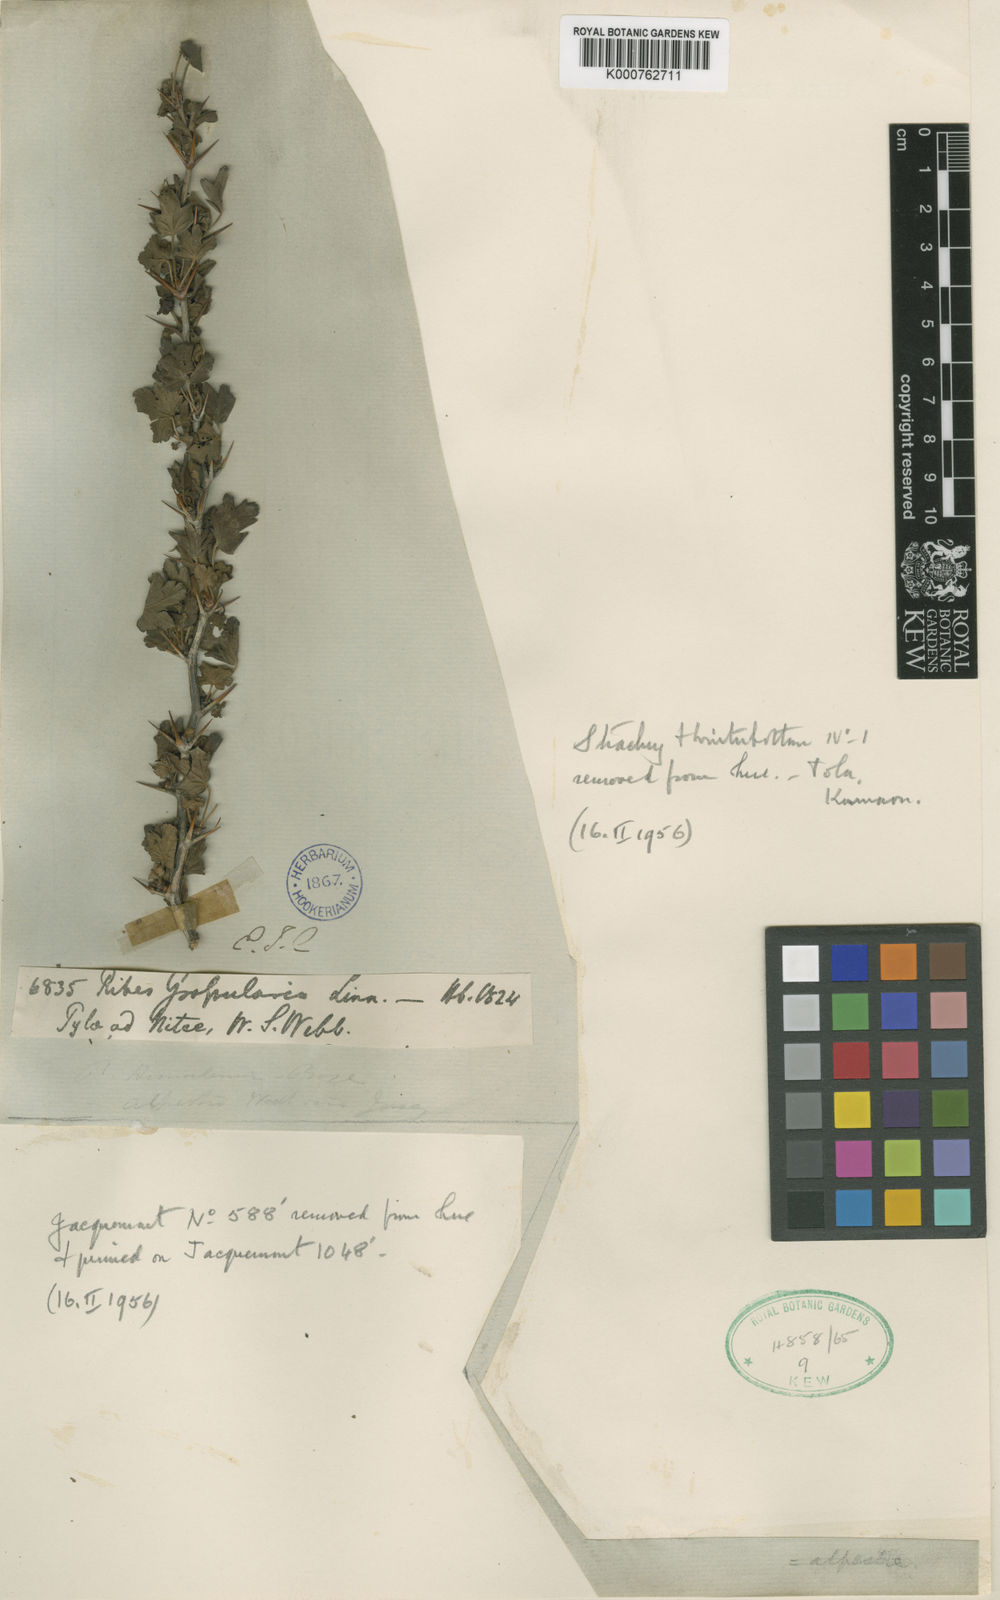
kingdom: Plantae
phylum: Tracheophyta
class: Magnoliopsida
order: Saxifragales
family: Grossulariaceae
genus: Ribes
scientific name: Ribes alpestre
